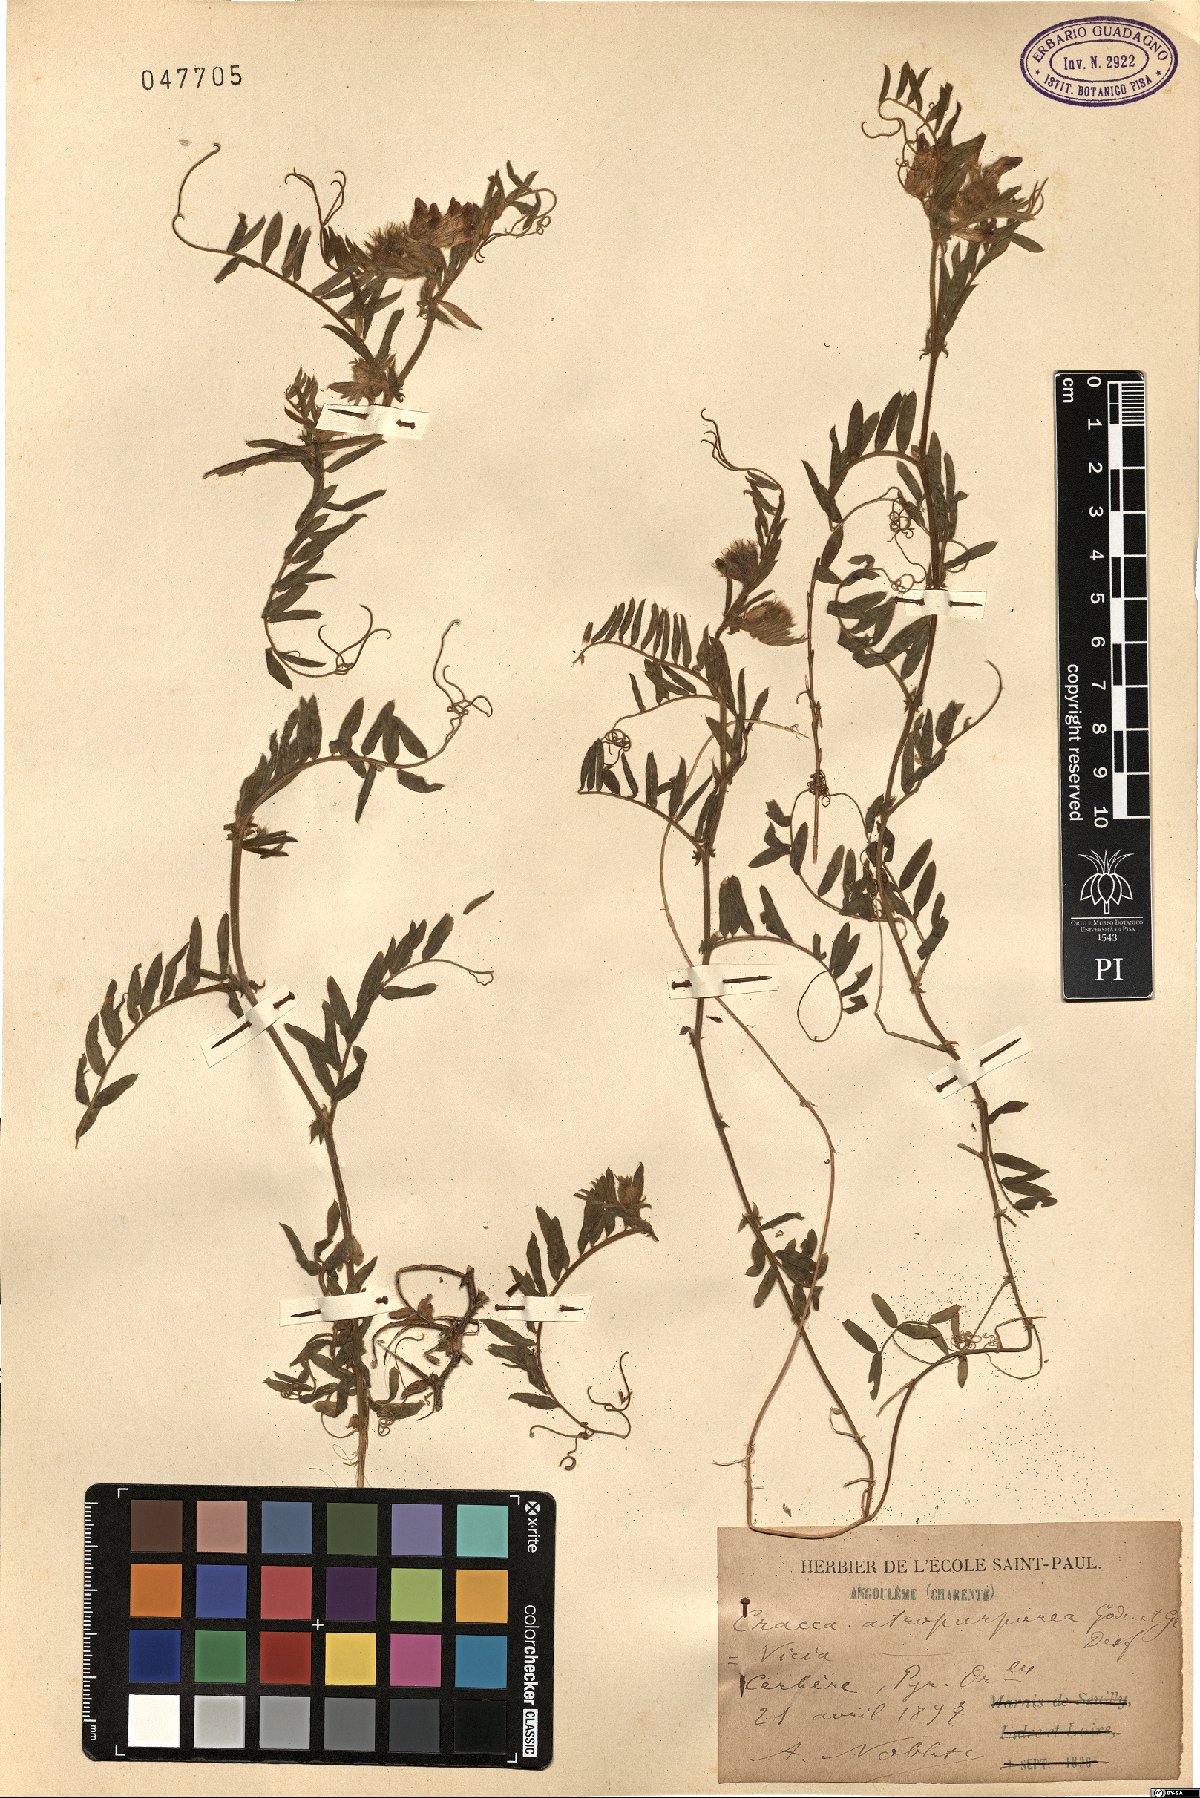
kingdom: Plantae
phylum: Tracheophyta
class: Magnoliopsida
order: Fabales
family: Fabaceae
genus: Vicia
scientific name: Vicia benghalensis
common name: Purple vetch
